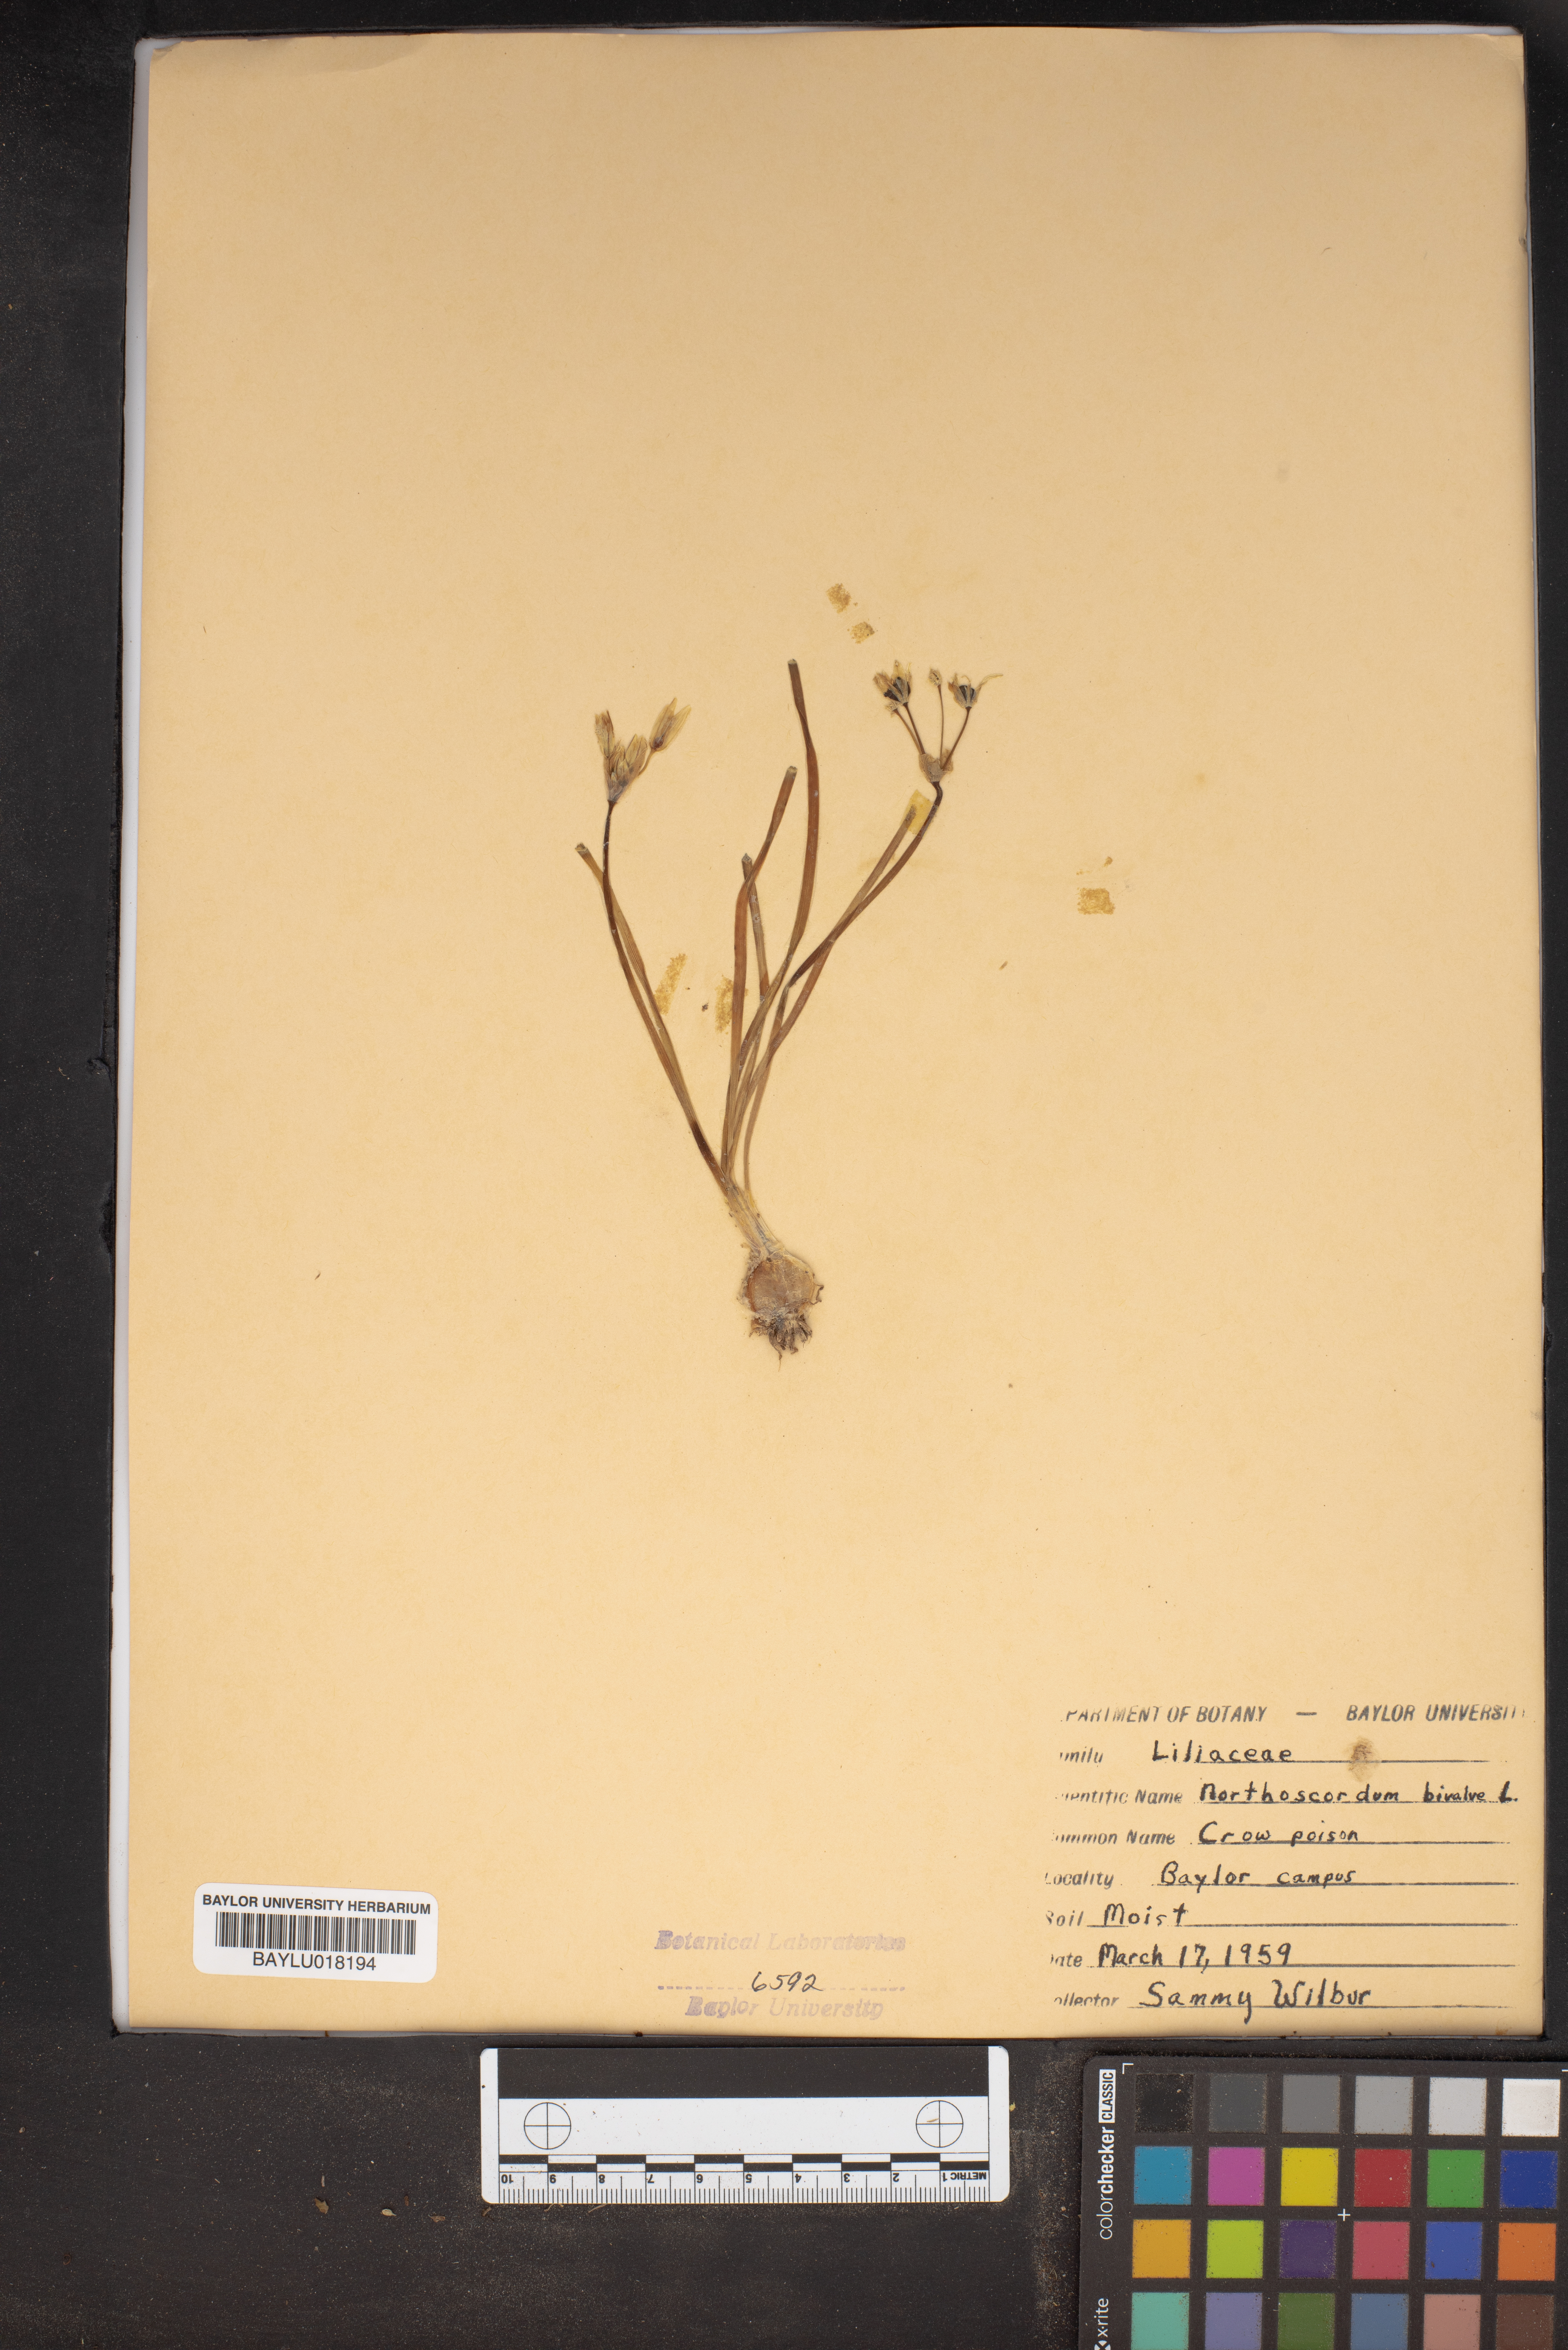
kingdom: Plantae
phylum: Tracheophyta
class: Liliopsida
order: Asparagales
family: Amaryllidaceae
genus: Nothoscordum
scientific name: Nothoscordum bivalve
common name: Crow-poison
